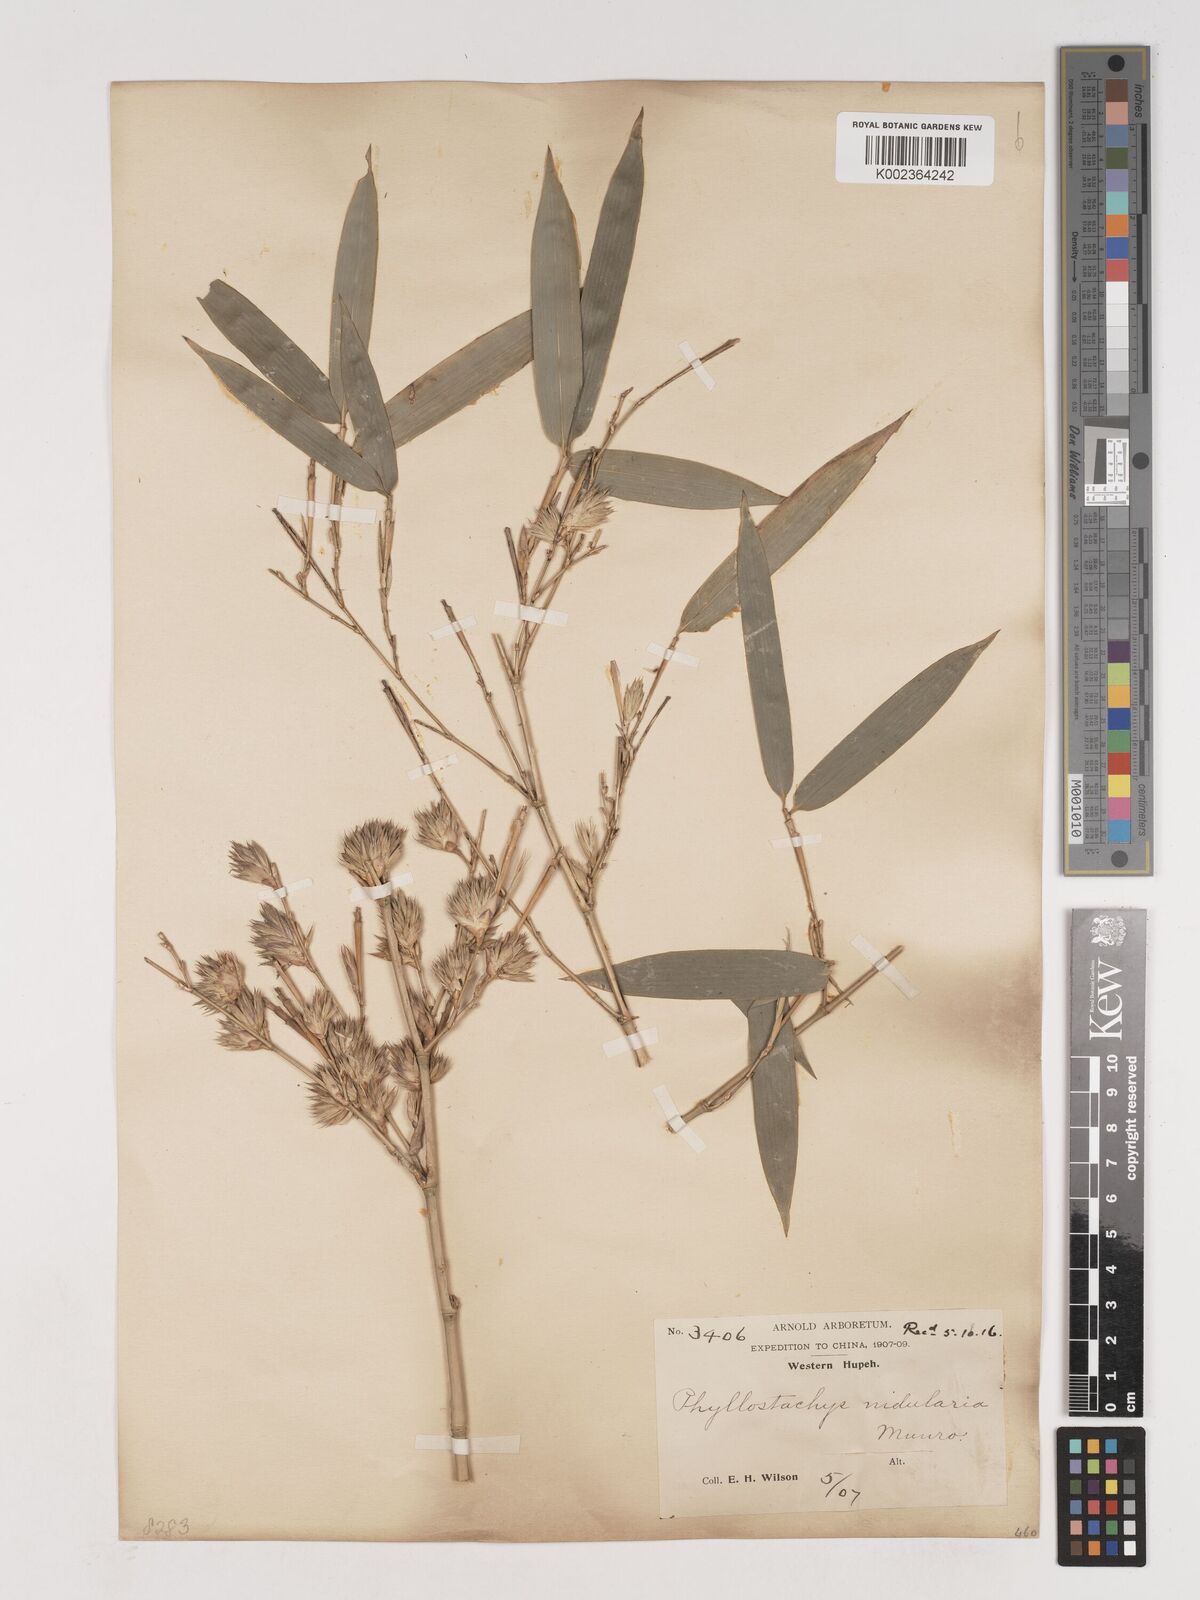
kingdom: Plantae
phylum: Tracheophyta
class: Liliopsida
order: Poales
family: Poaceae
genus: Phyllostachys
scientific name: Phyllostachys nidularia
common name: Broom bamboo
